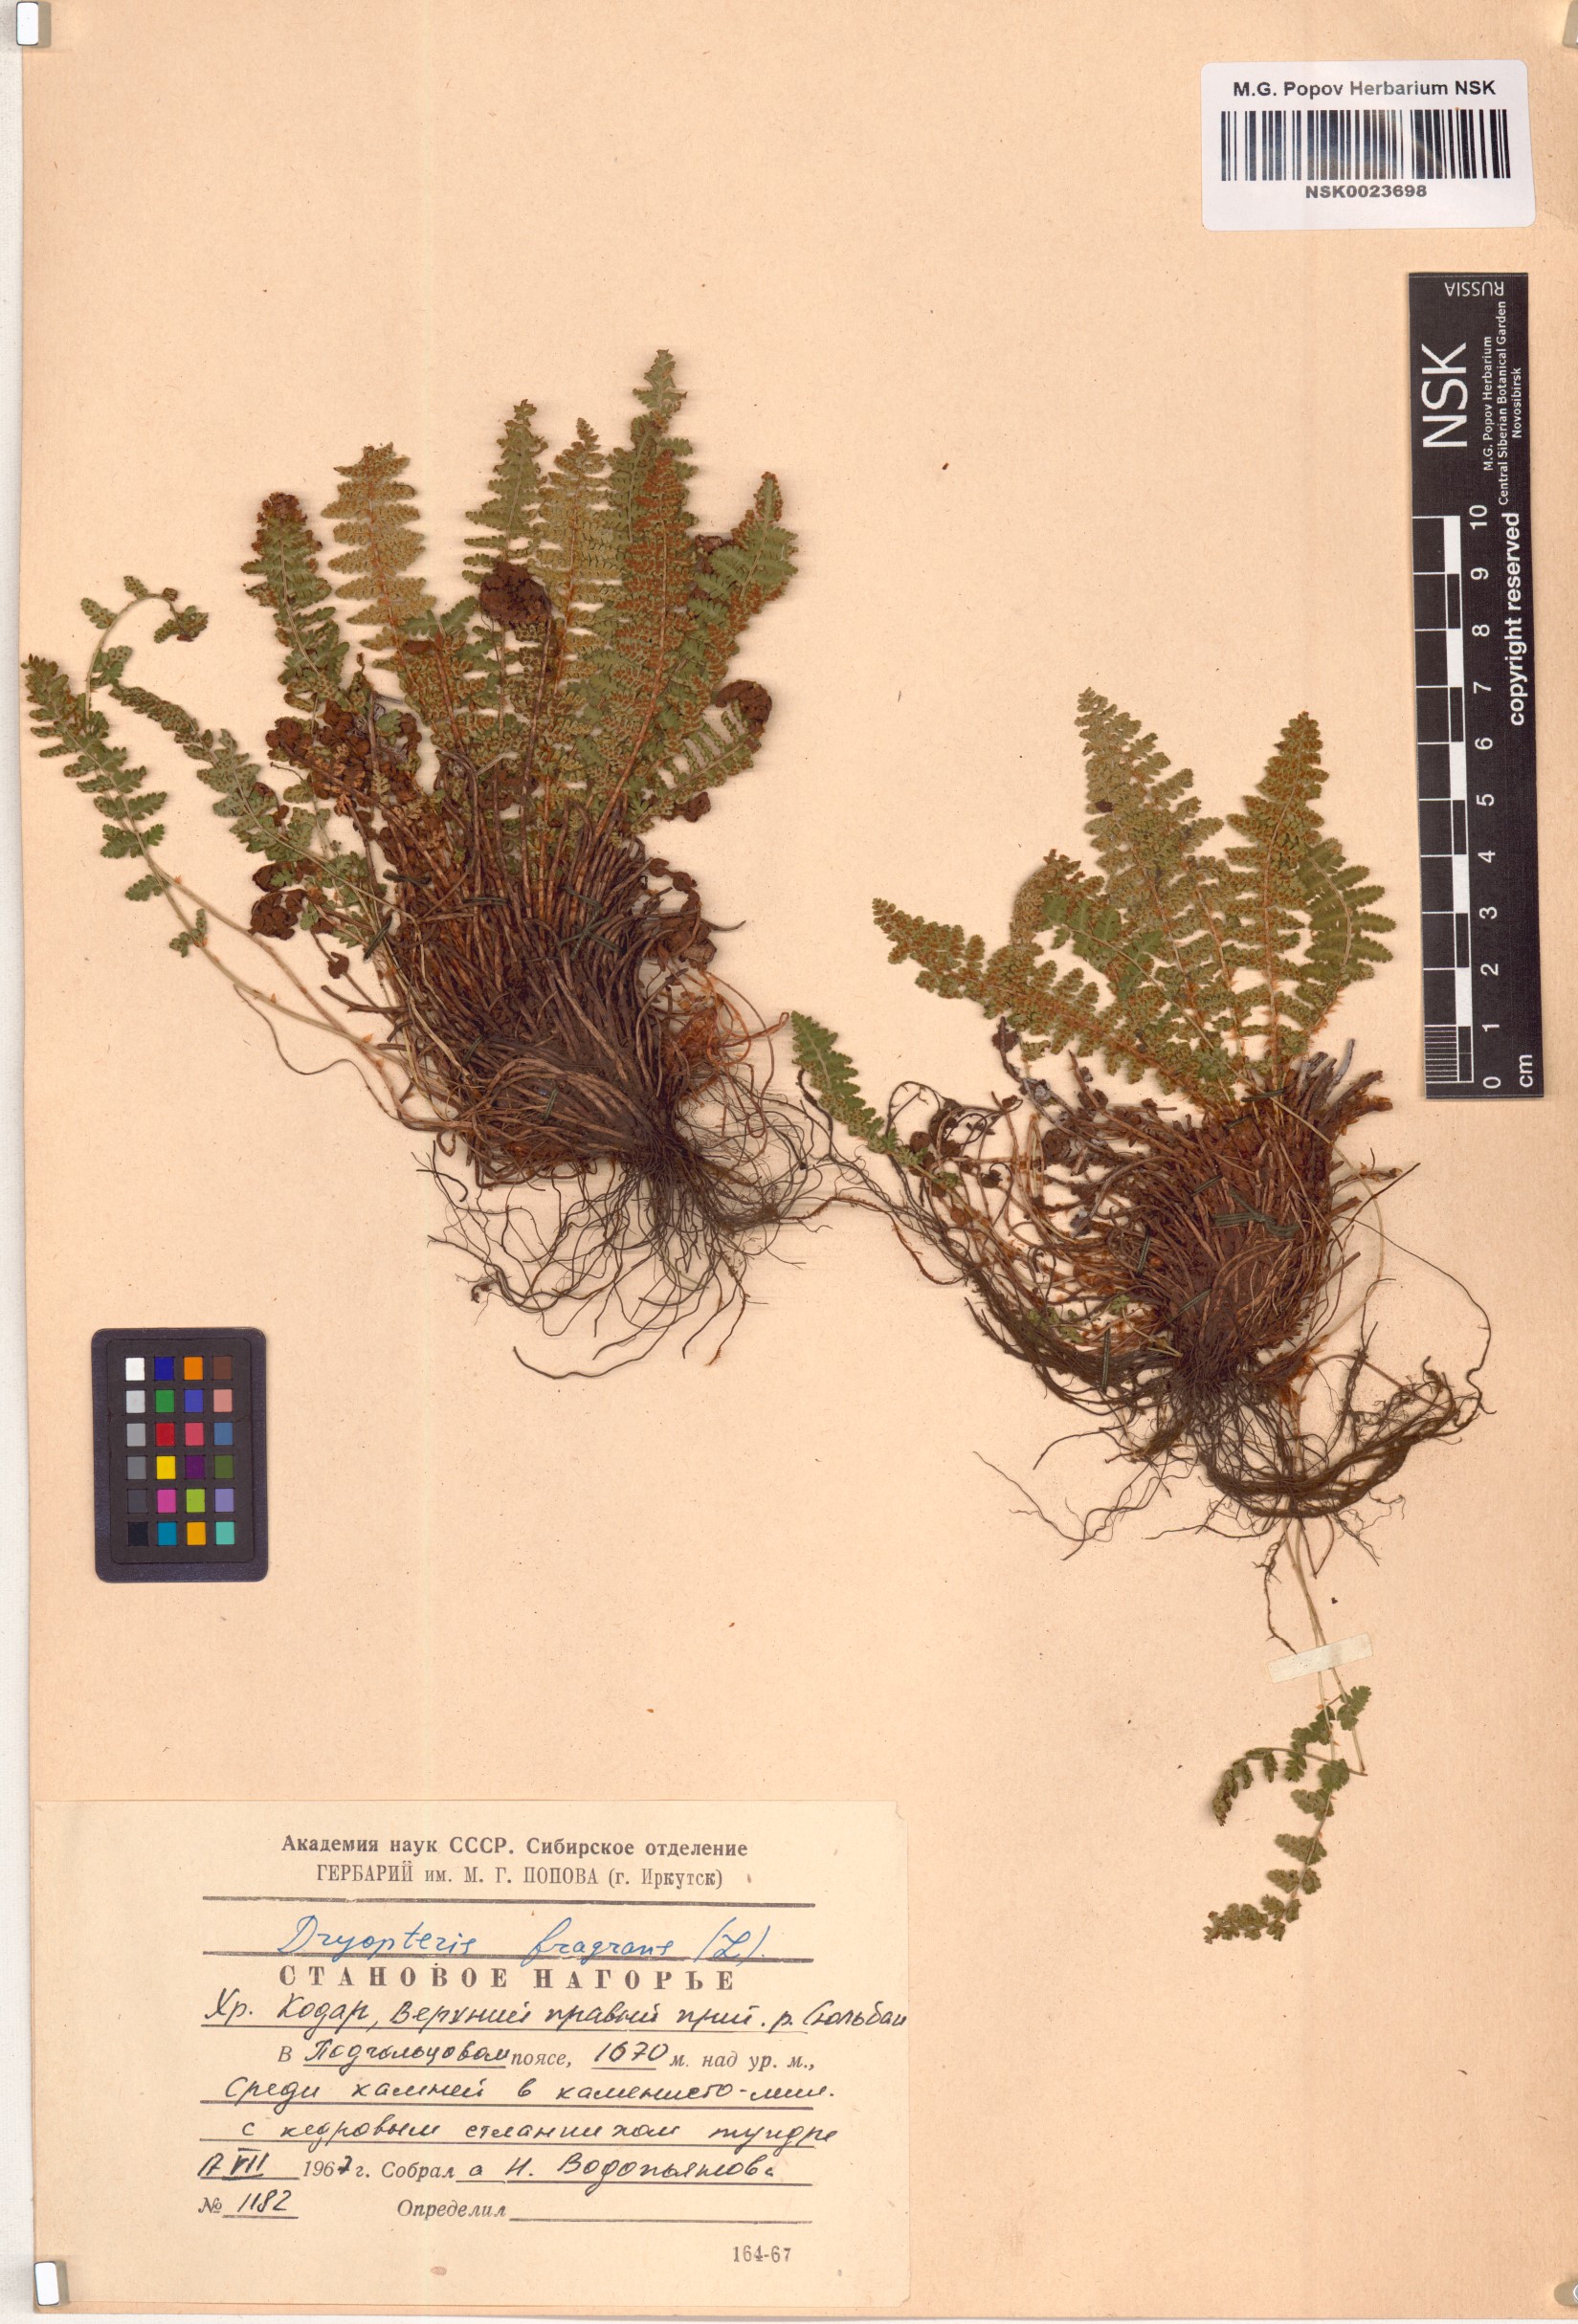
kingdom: Plantae
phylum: Tracheophyta
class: Polypodiopsida
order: Polypodiales
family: Dryopteridaceae
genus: Dryopteris
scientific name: Dryopteris fragrans
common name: Fragrant wood fern
